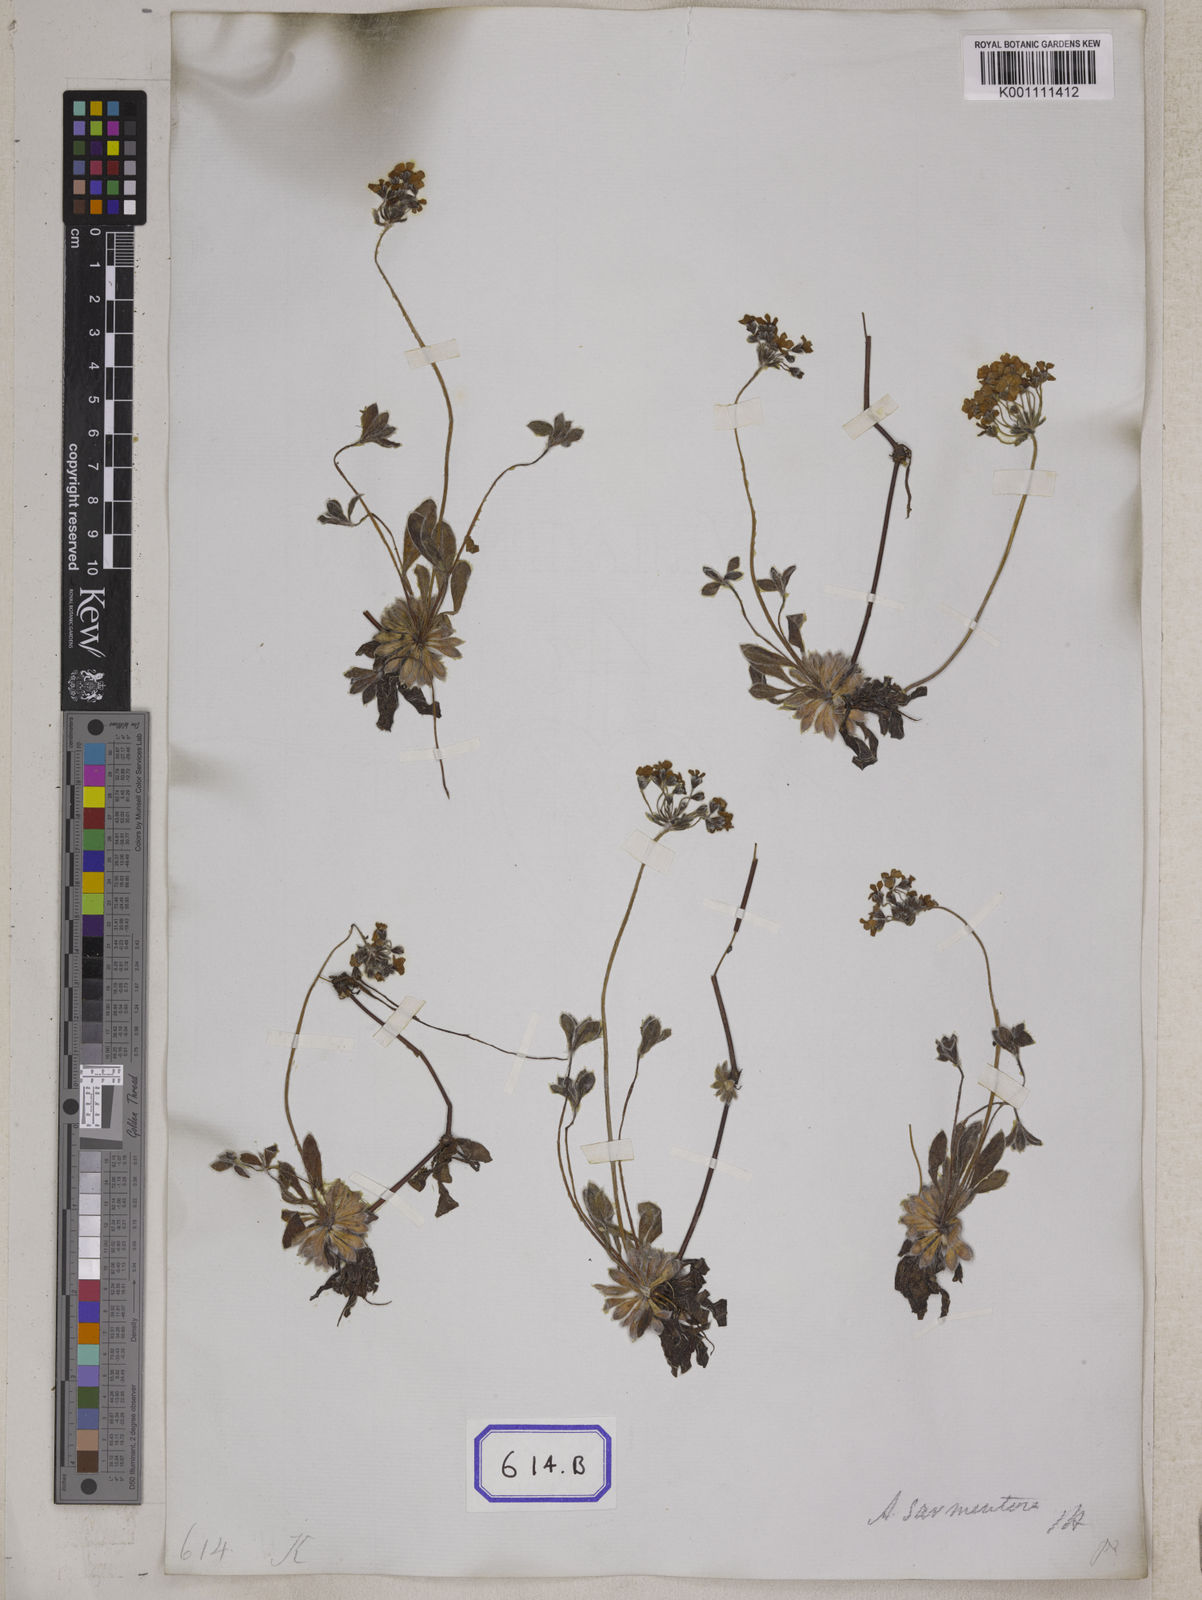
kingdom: Plantae
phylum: Tracheophyta
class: Magnoliopsida
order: Ericales
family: Primulaceae
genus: Androsace
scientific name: Androsace sarmentosa
